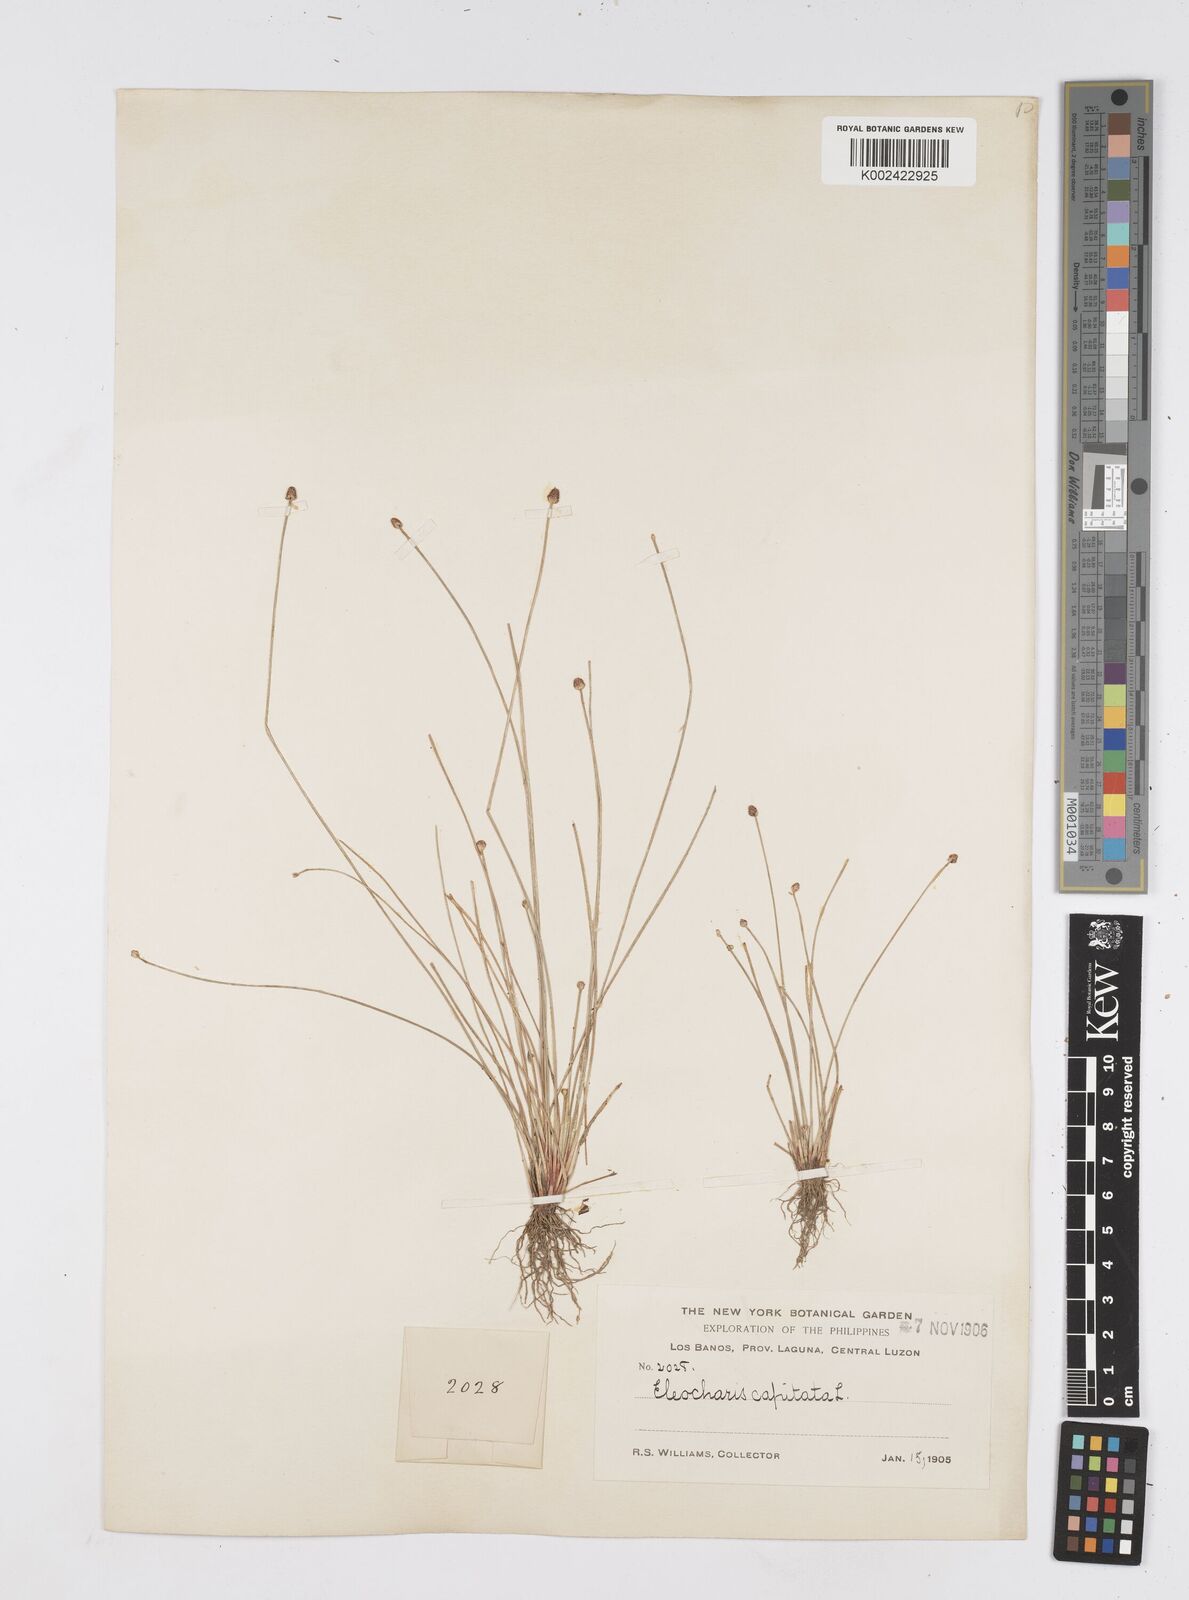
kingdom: Plantae
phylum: Tracheophyta
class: Liliopsida
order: Poales
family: Cyperaceae
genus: Eleocharis
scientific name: Eleocharis geniculata
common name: Canada spikesedge
